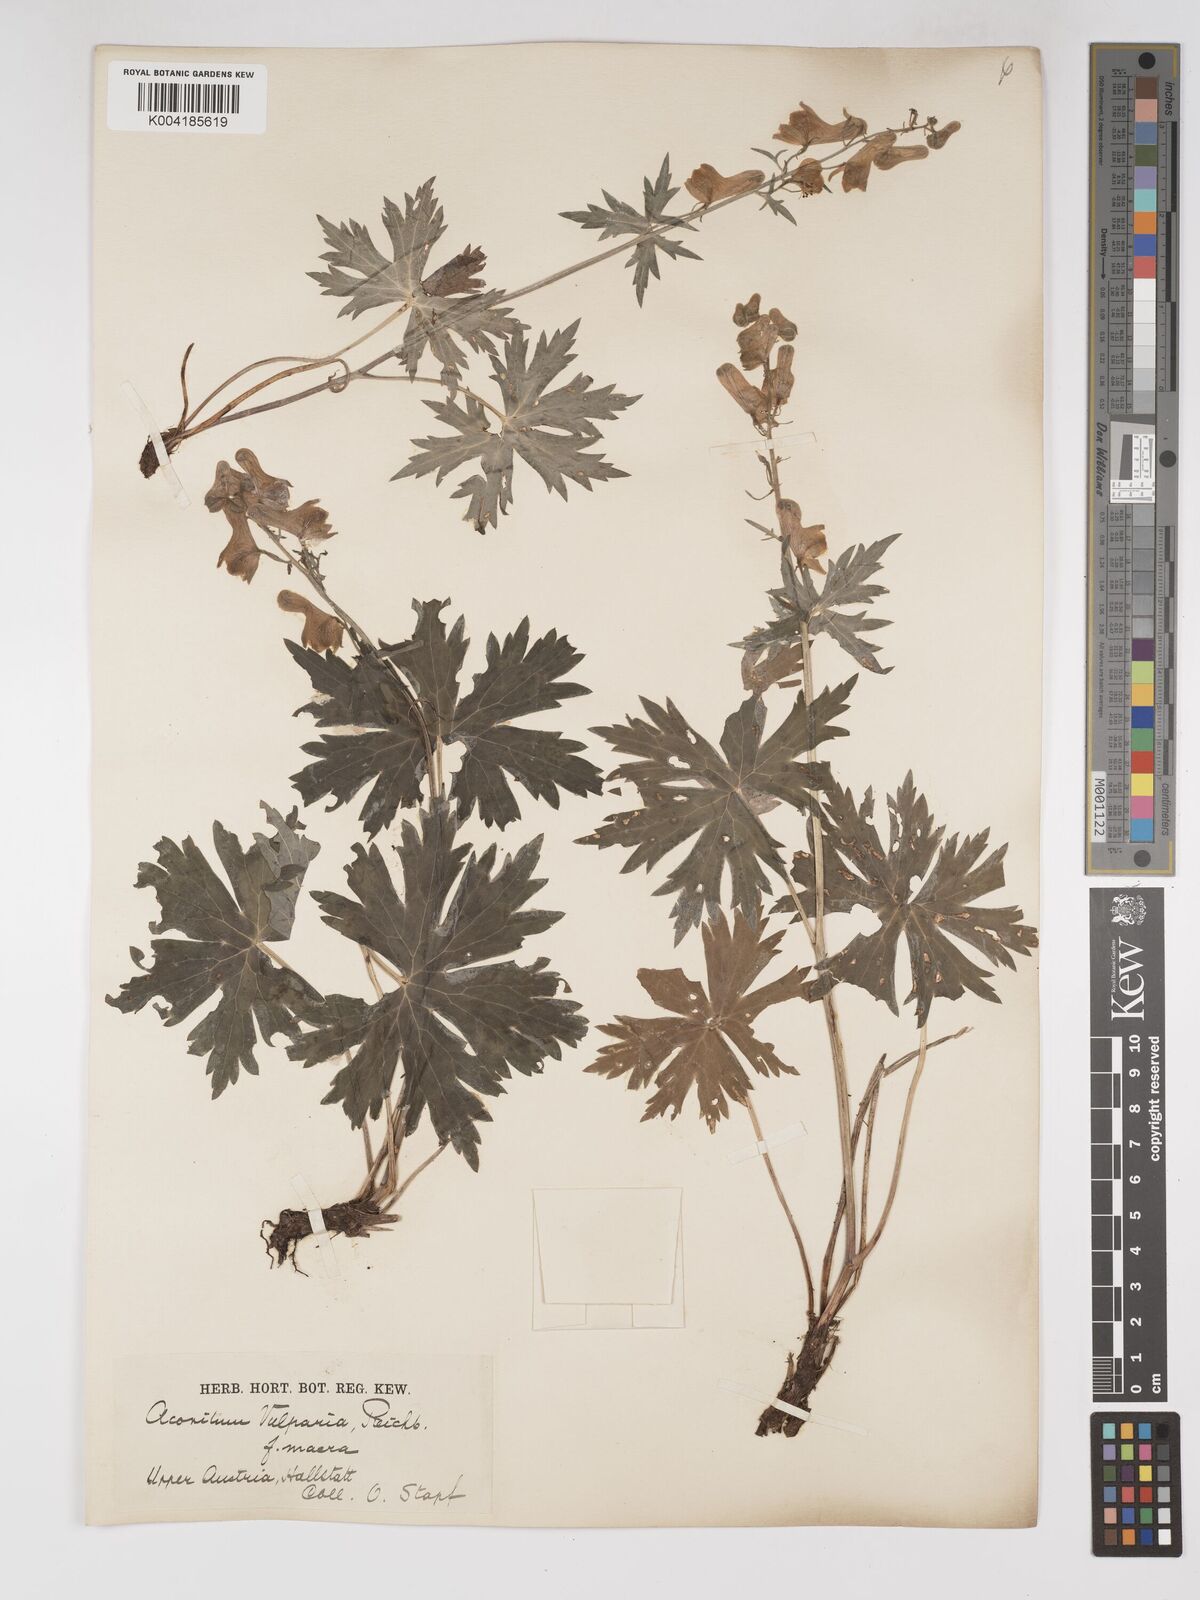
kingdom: Plantae
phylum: Tracheophyta
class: Magnoliopsida
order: Ranunculales
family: Ranunculaceae
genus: Aconitum
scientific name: Aconitum lycoctonum
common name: Wolf's-bane
